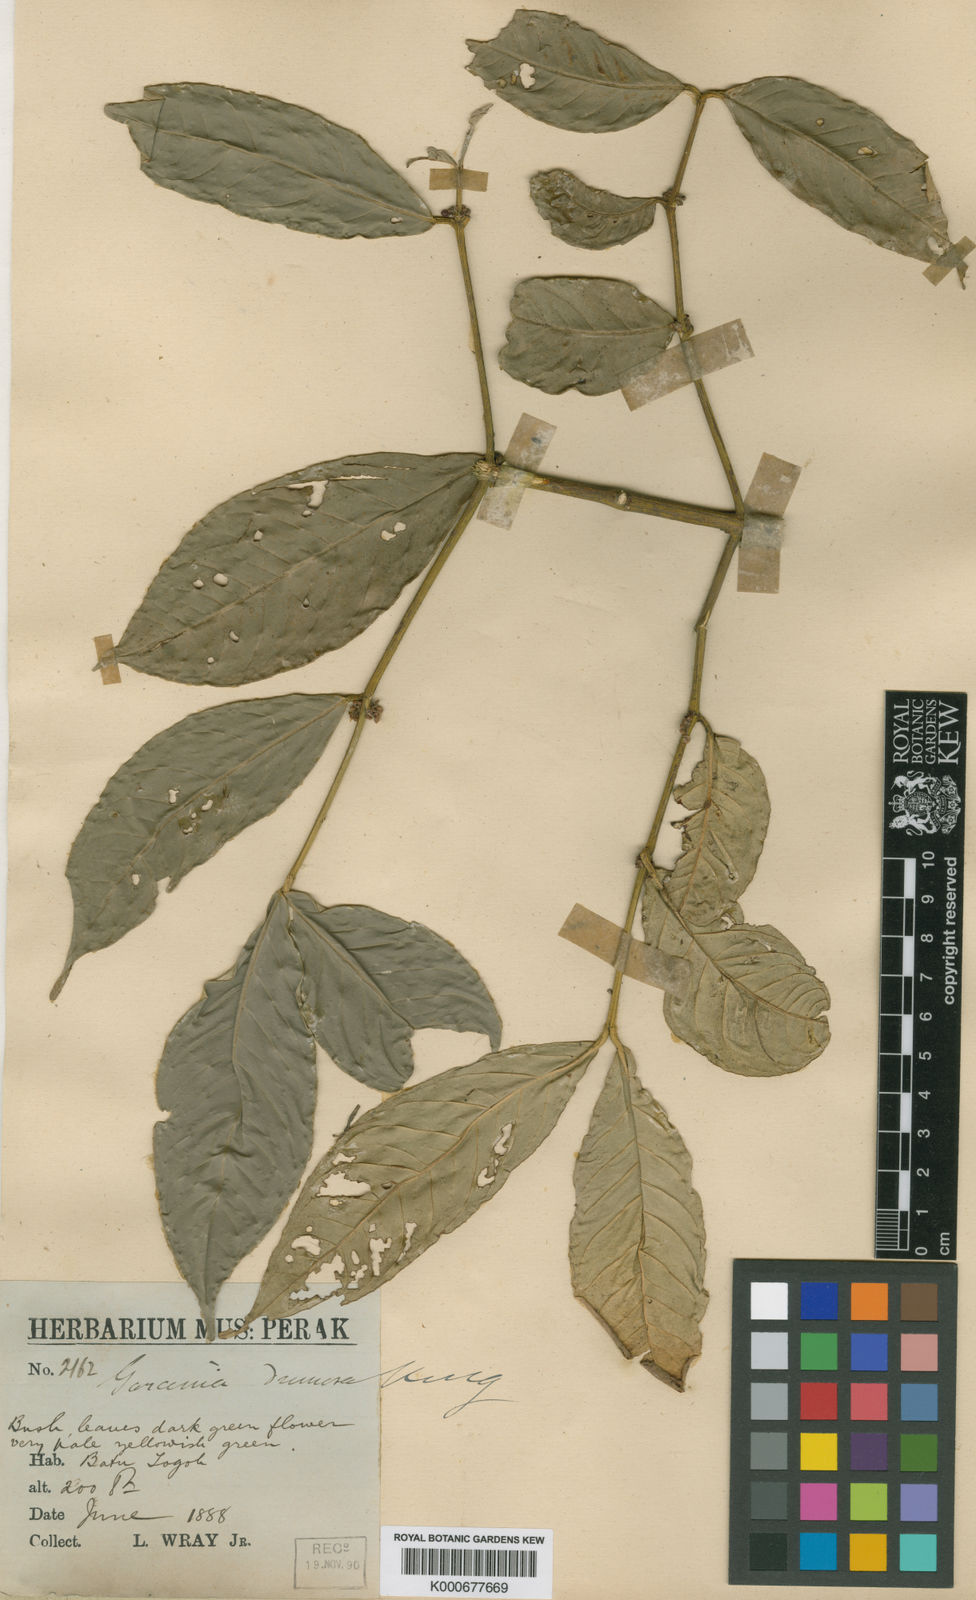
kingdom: Plantae
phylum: Tracheophyta
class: Magnoliopsida
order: Malpighiales
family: Clusiaceae
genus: Garcinia
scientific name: Garcinia dumosa
